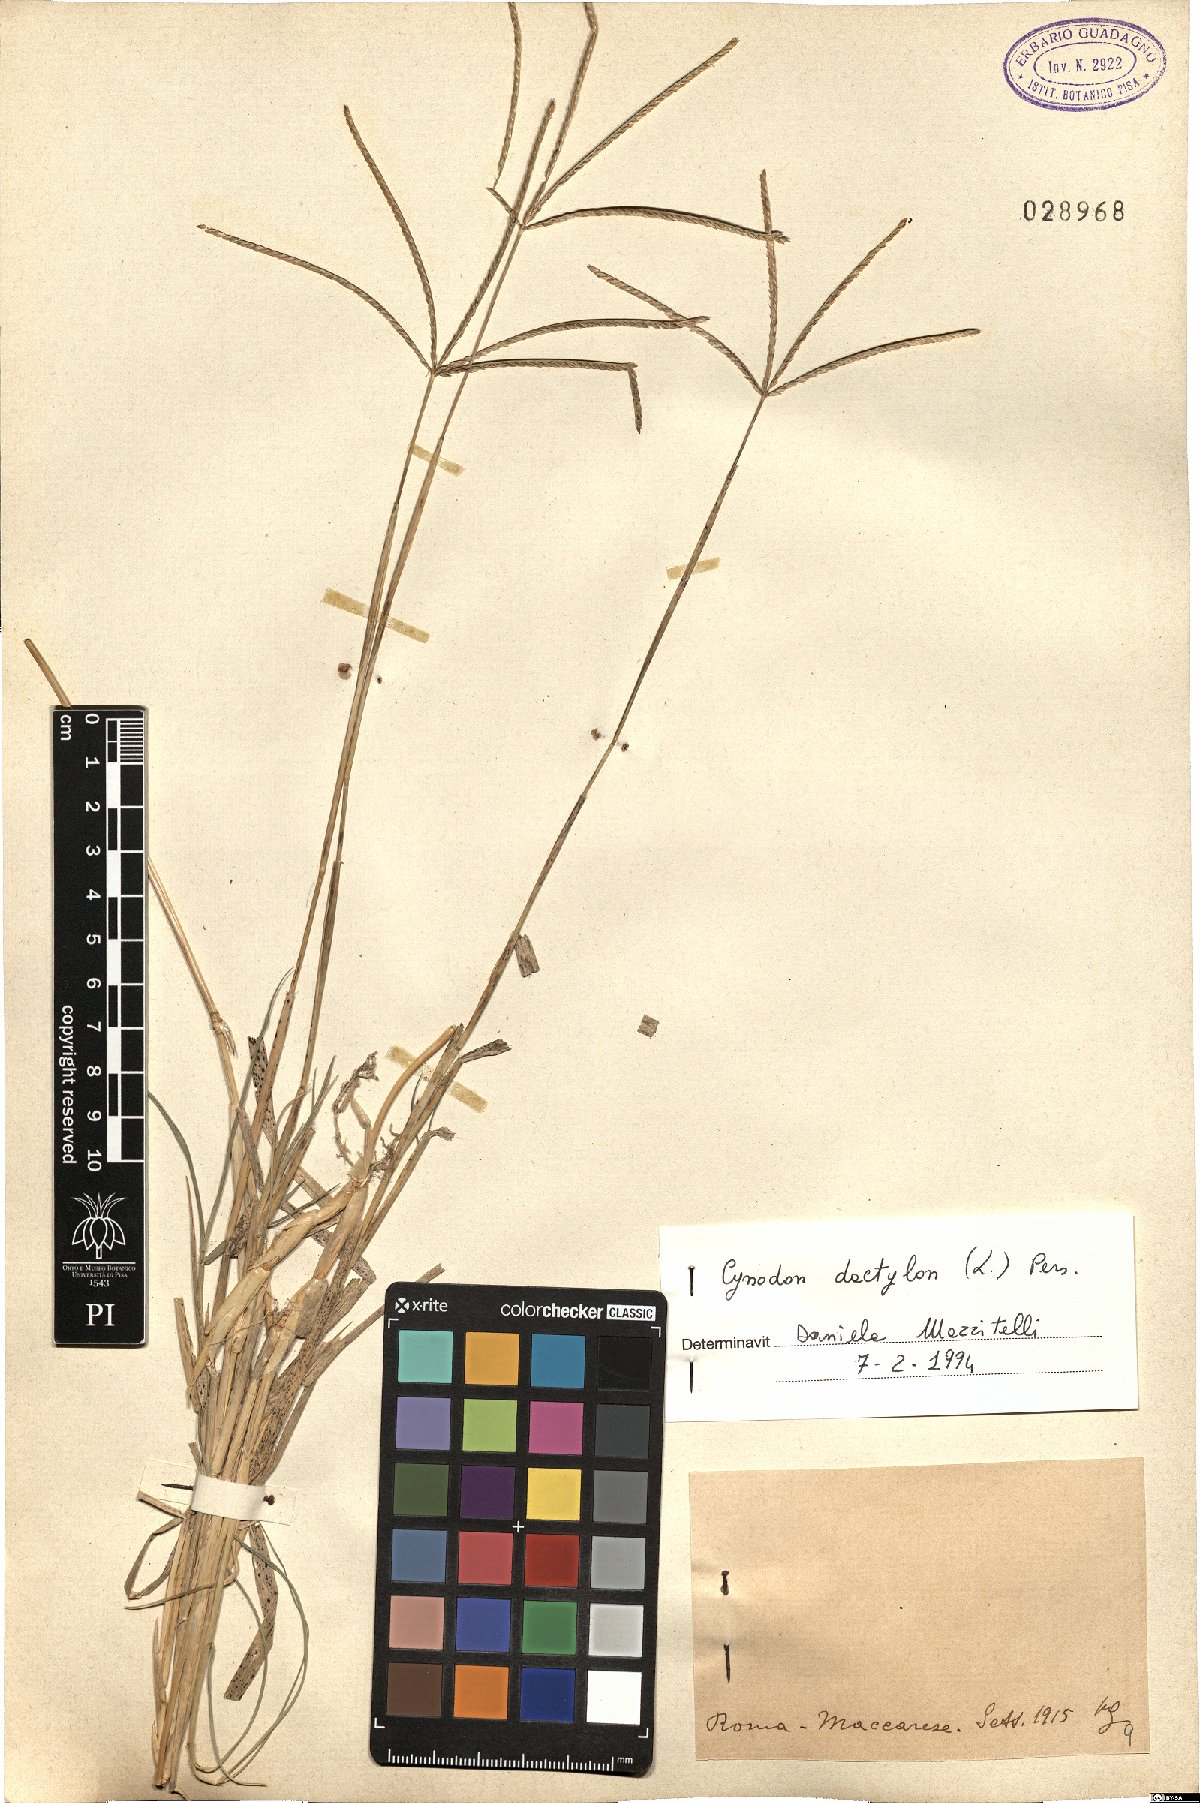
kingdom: Plantae
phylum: Tracheophyta
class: Liliopsida
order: Poales
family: Poaceae
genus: Cynodon
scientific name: Cynodon dactylon
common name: Bermuda grass
